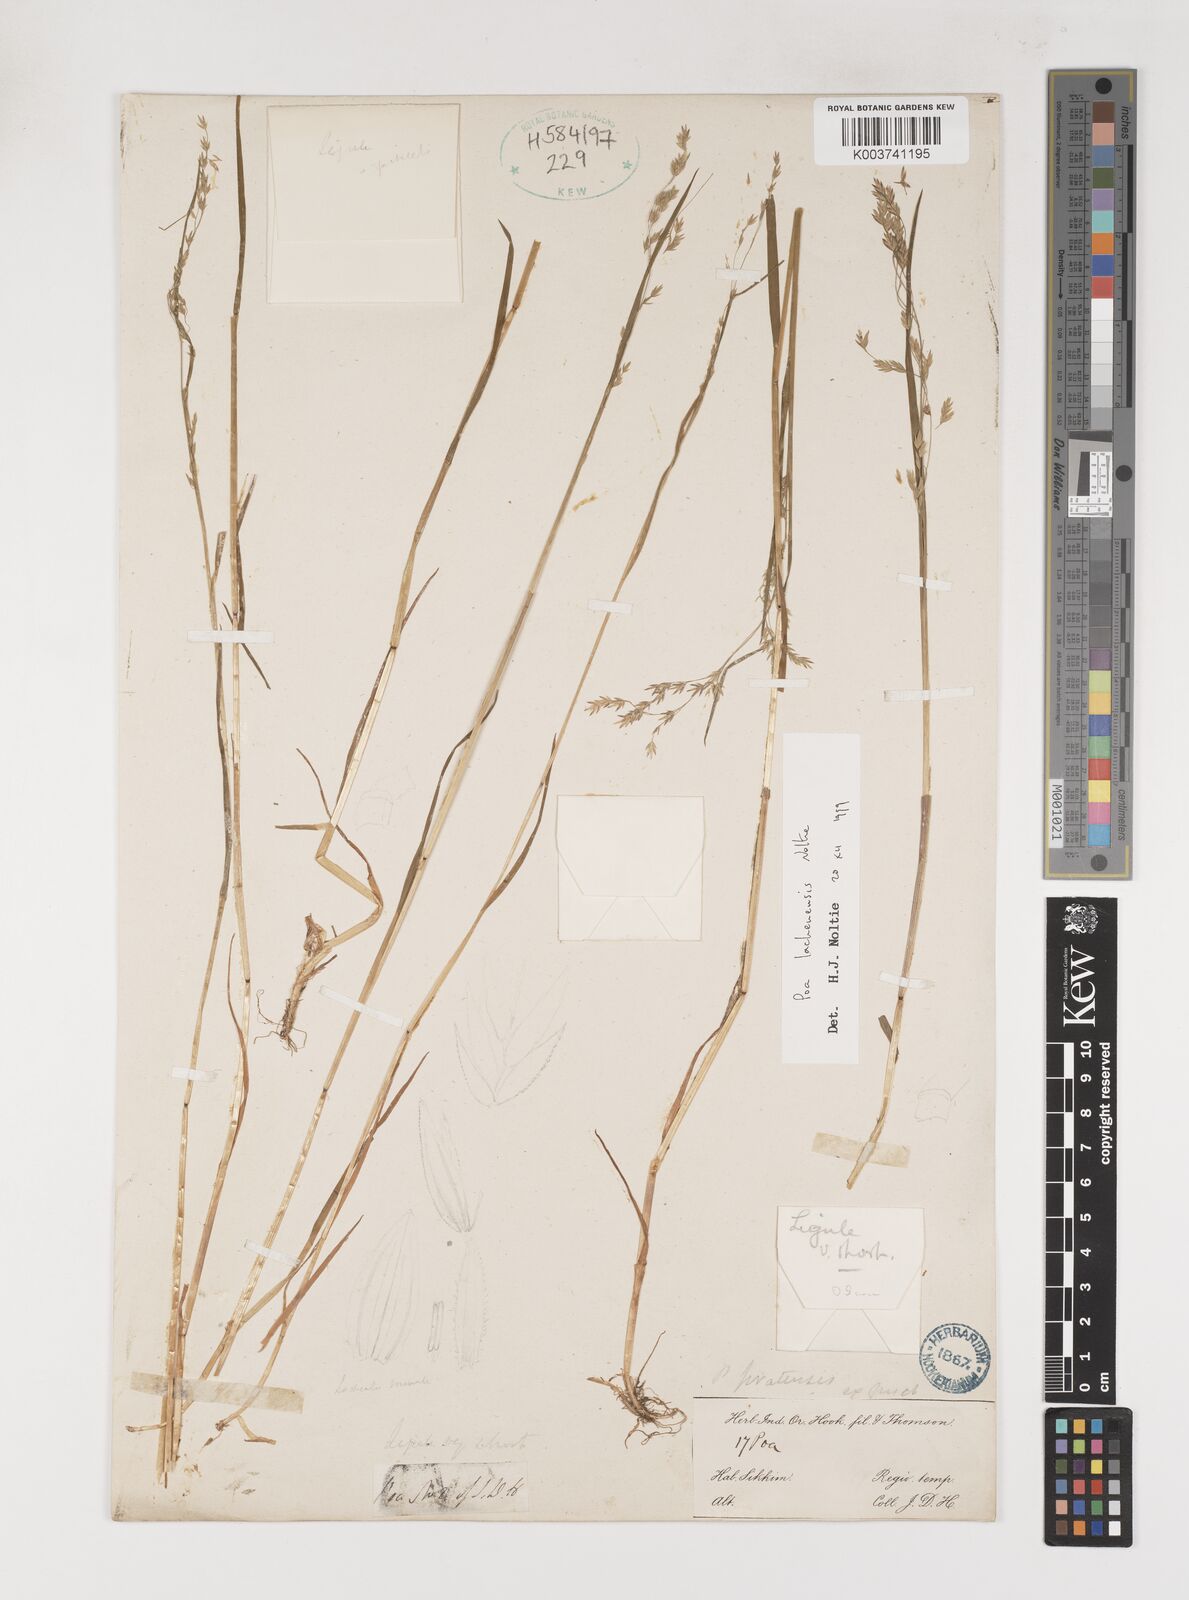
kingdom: Plantae
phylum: Tracheophyta
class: Liliopsida
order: Poales
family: Poaceae
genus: Poa
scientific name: Poa lachenensis
